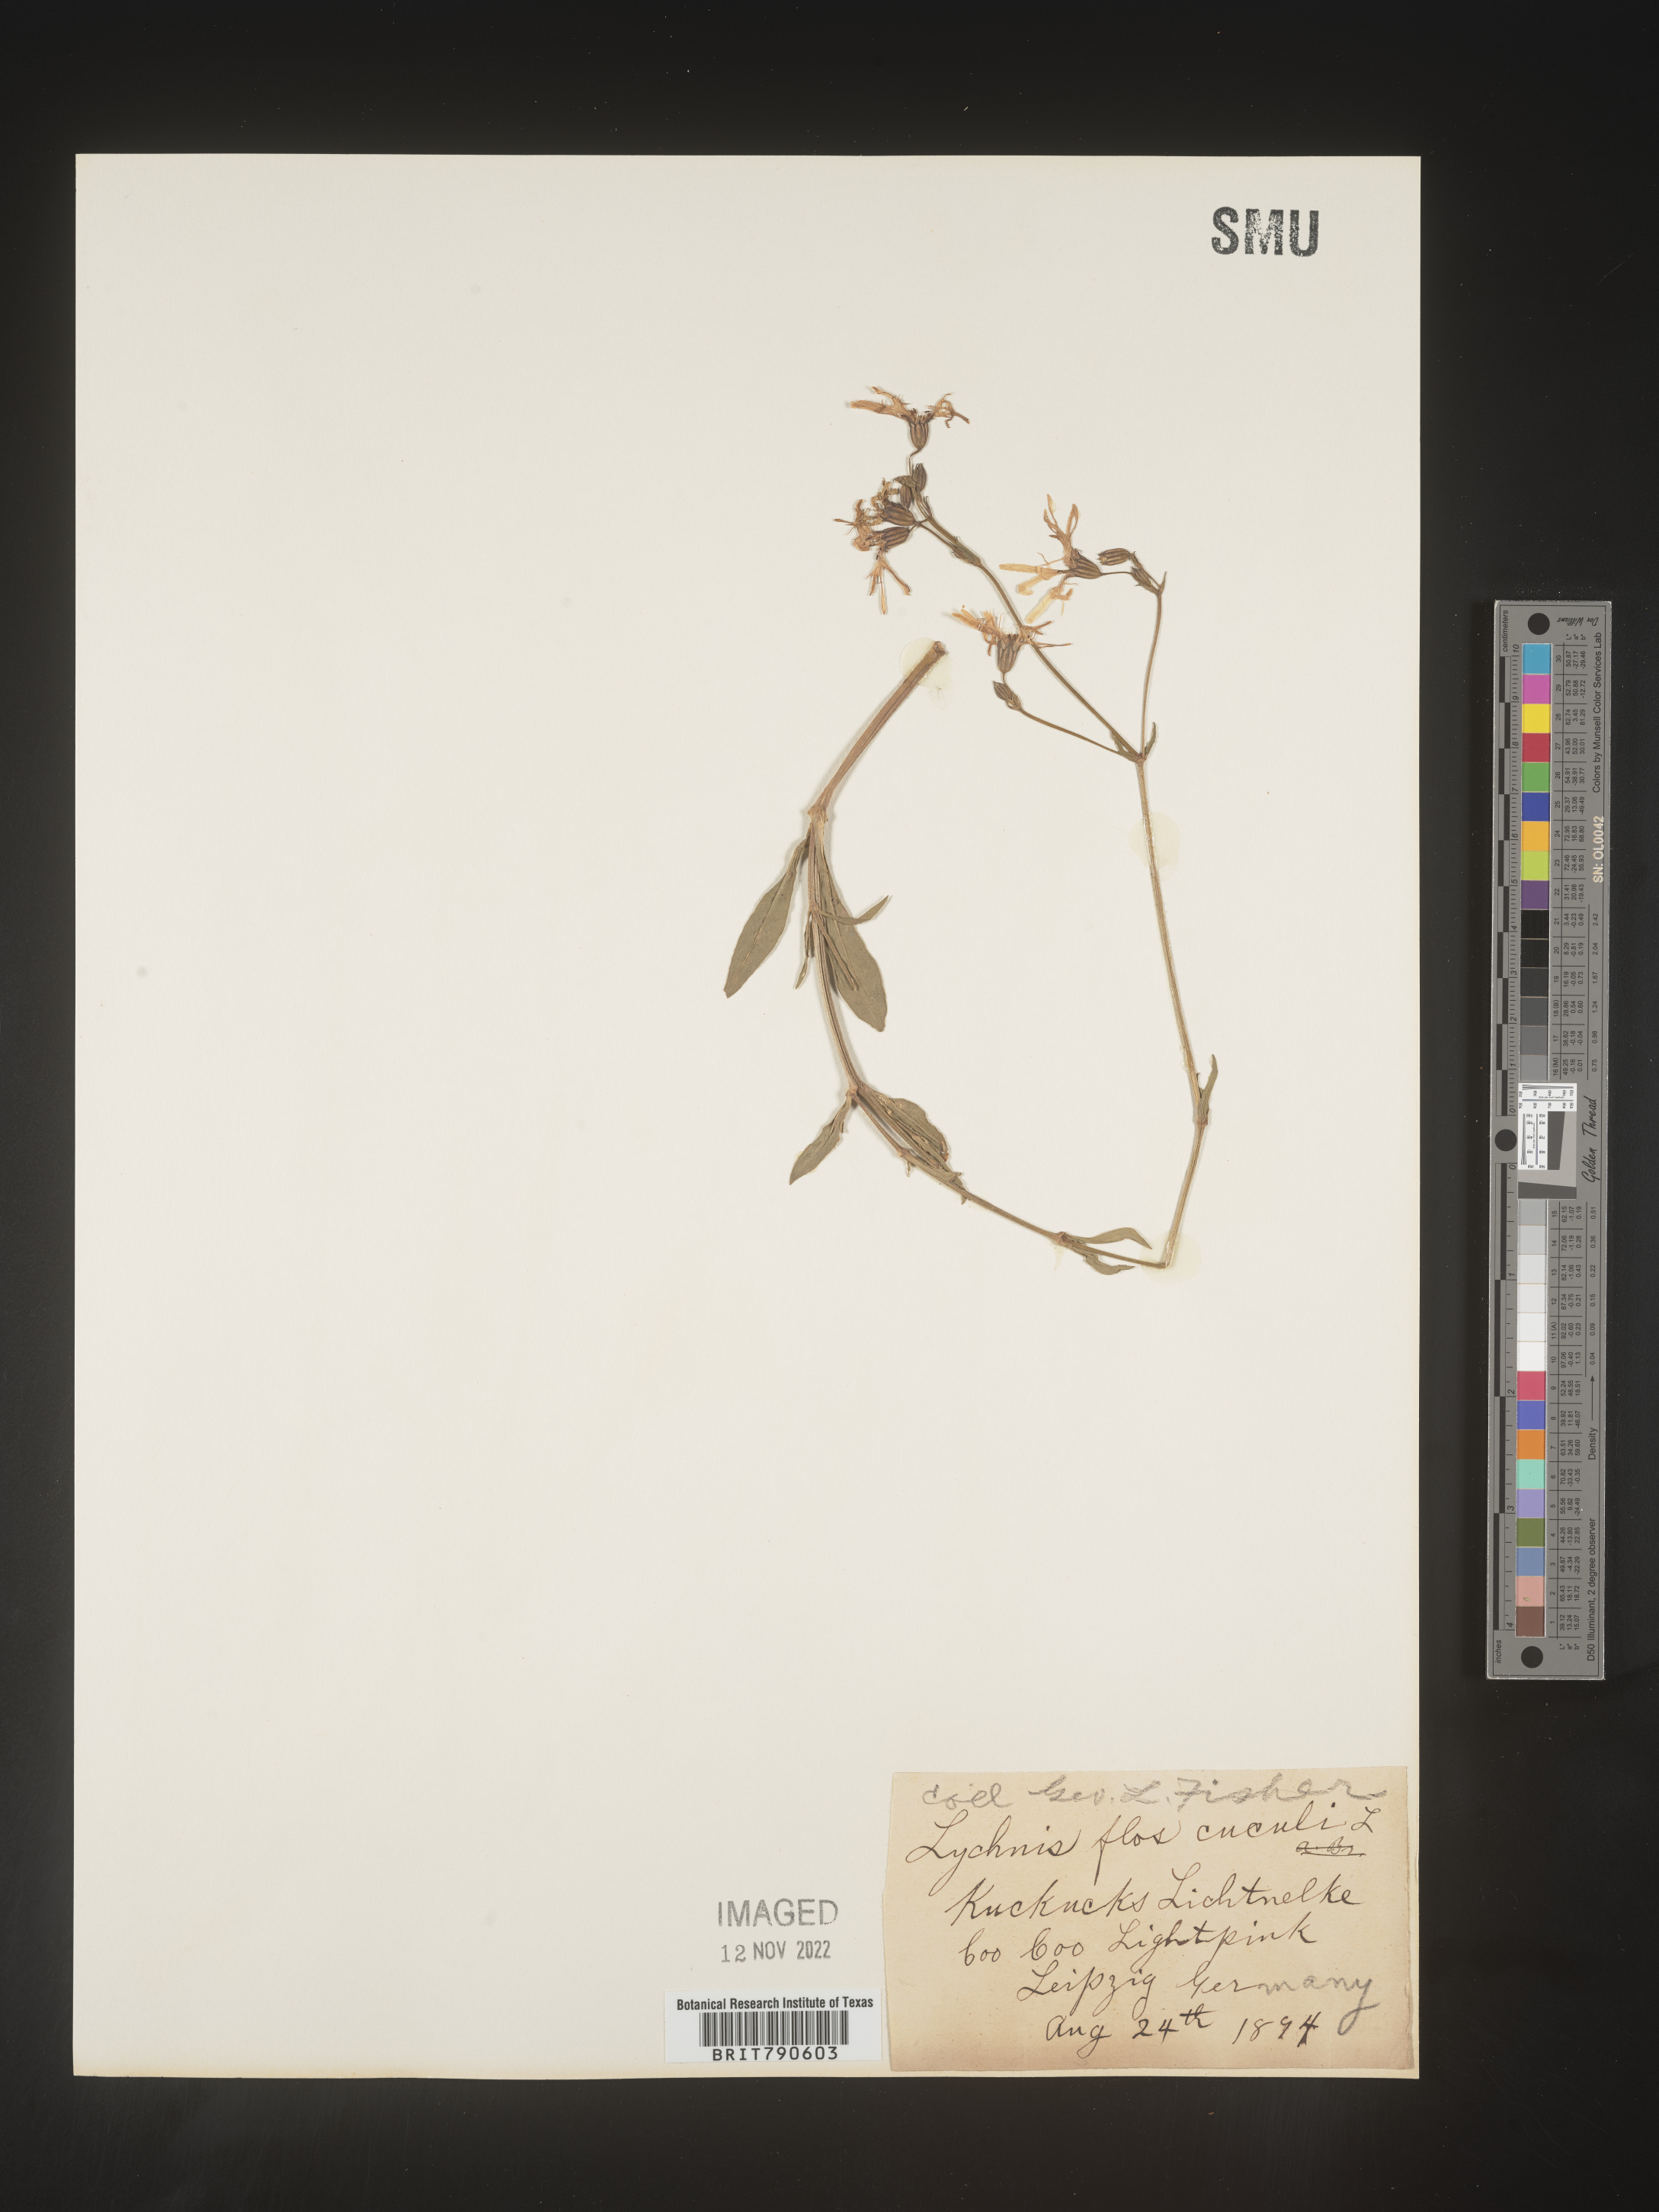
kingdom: Plantae
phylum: Tracheophyta
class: Magnoliopsida
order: Caryophyllales
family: Caryophyllaceae
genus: Silene
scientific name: Silene
